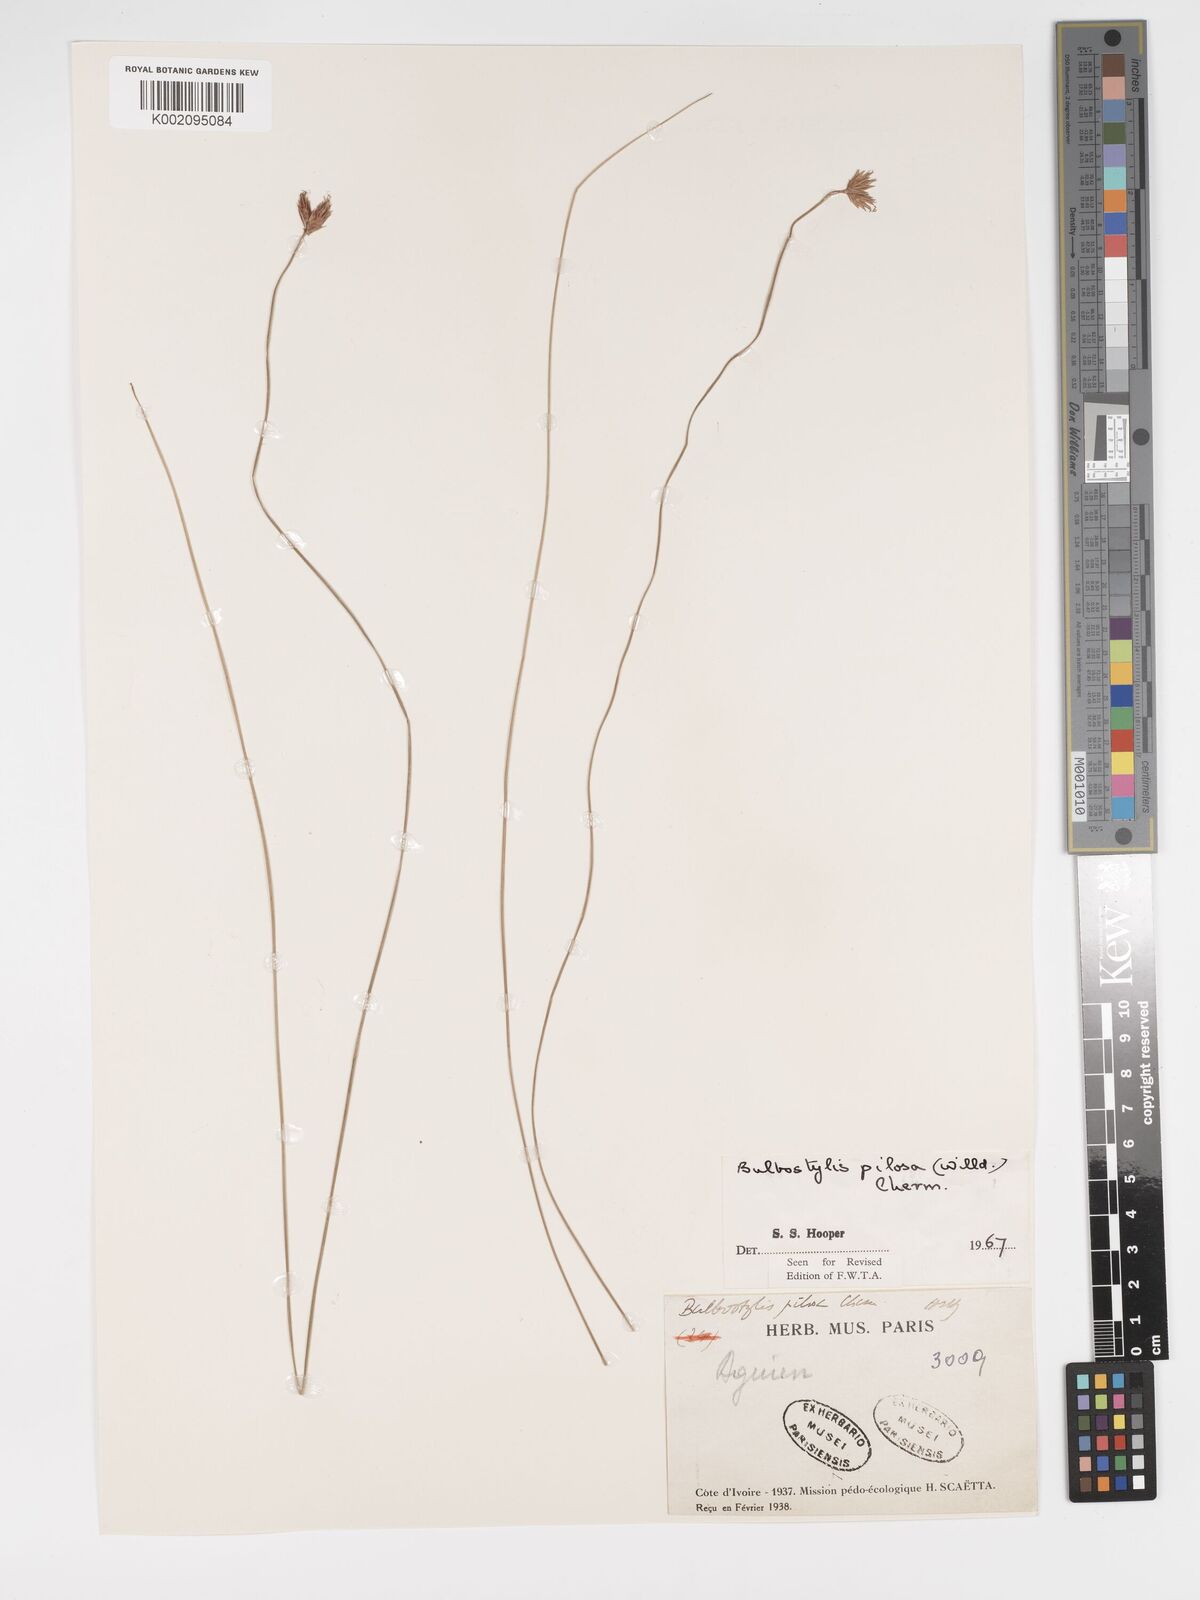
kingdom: Plantae
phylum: Tracheophyta
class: Liliopsida
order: Poales
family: Cyperaceae
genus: Bulbostylis
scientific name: Bulbostylis pilosa
